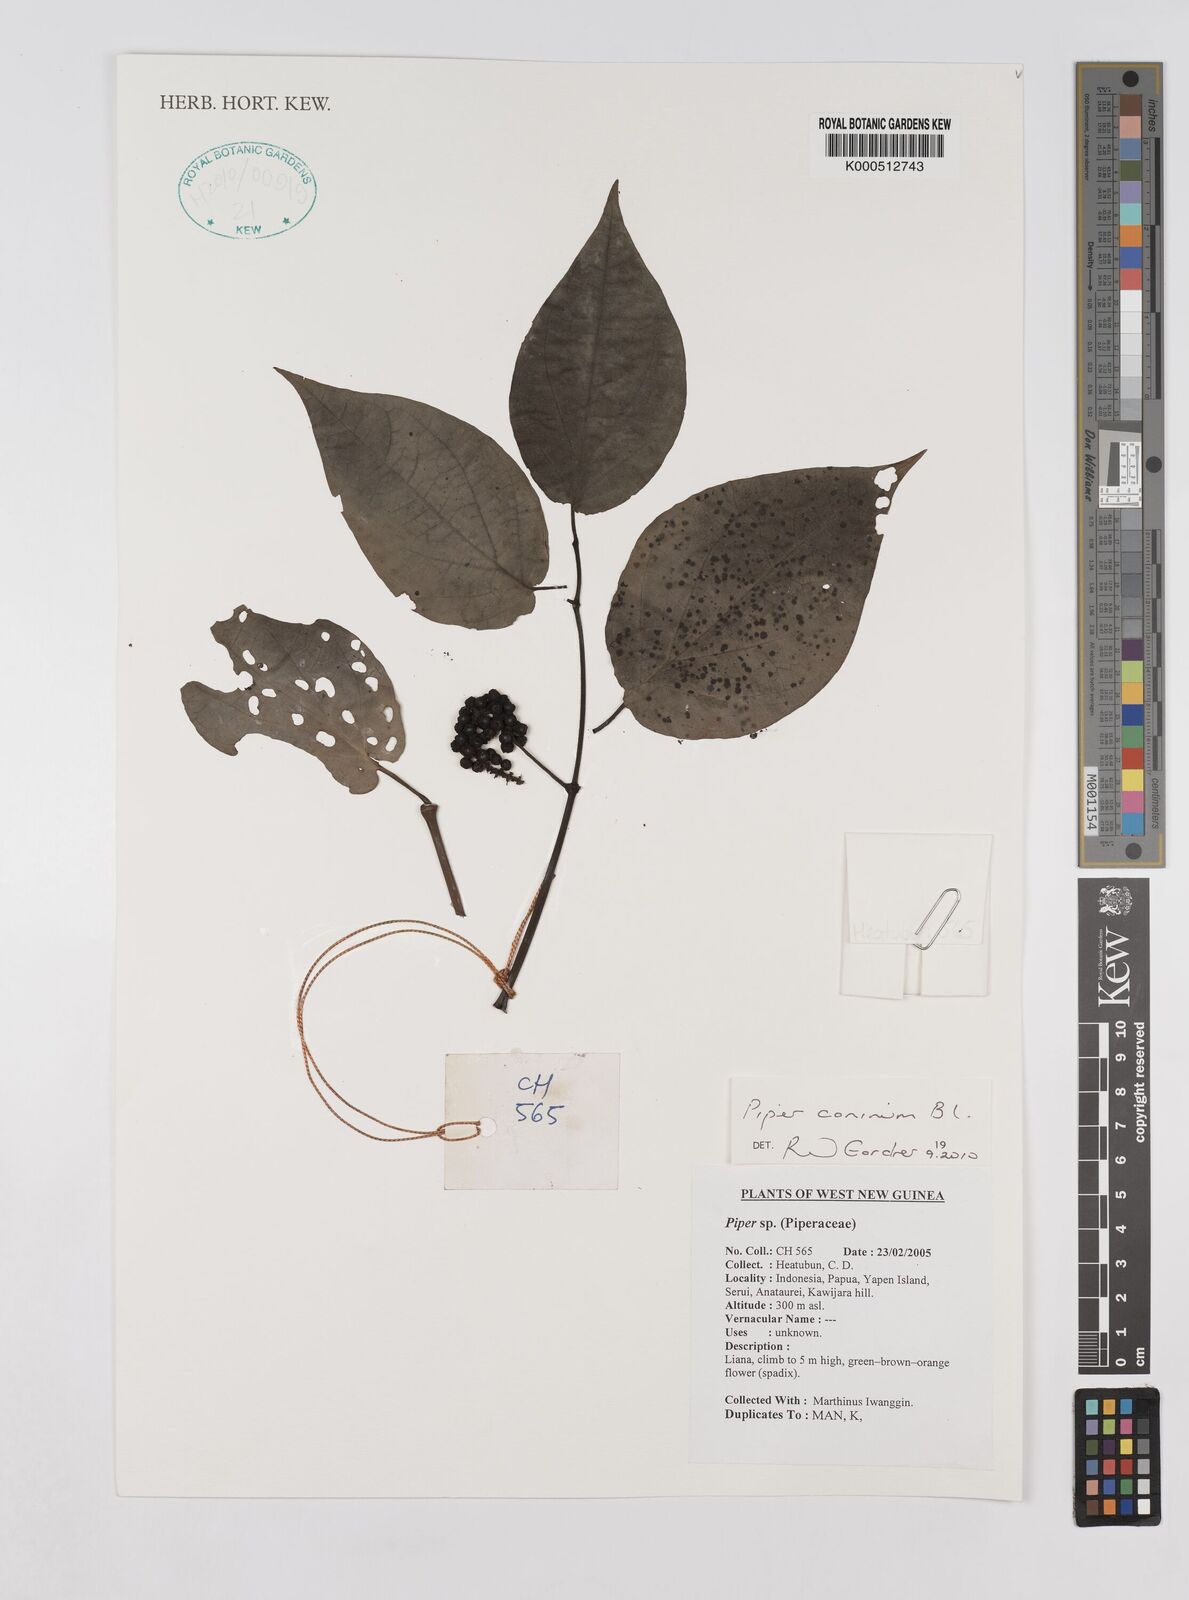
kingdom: Plantae
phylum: Tracheophyta
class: Magnoliopsida
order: Piperales
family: Piperaceae
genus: Piper
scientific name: Piper
